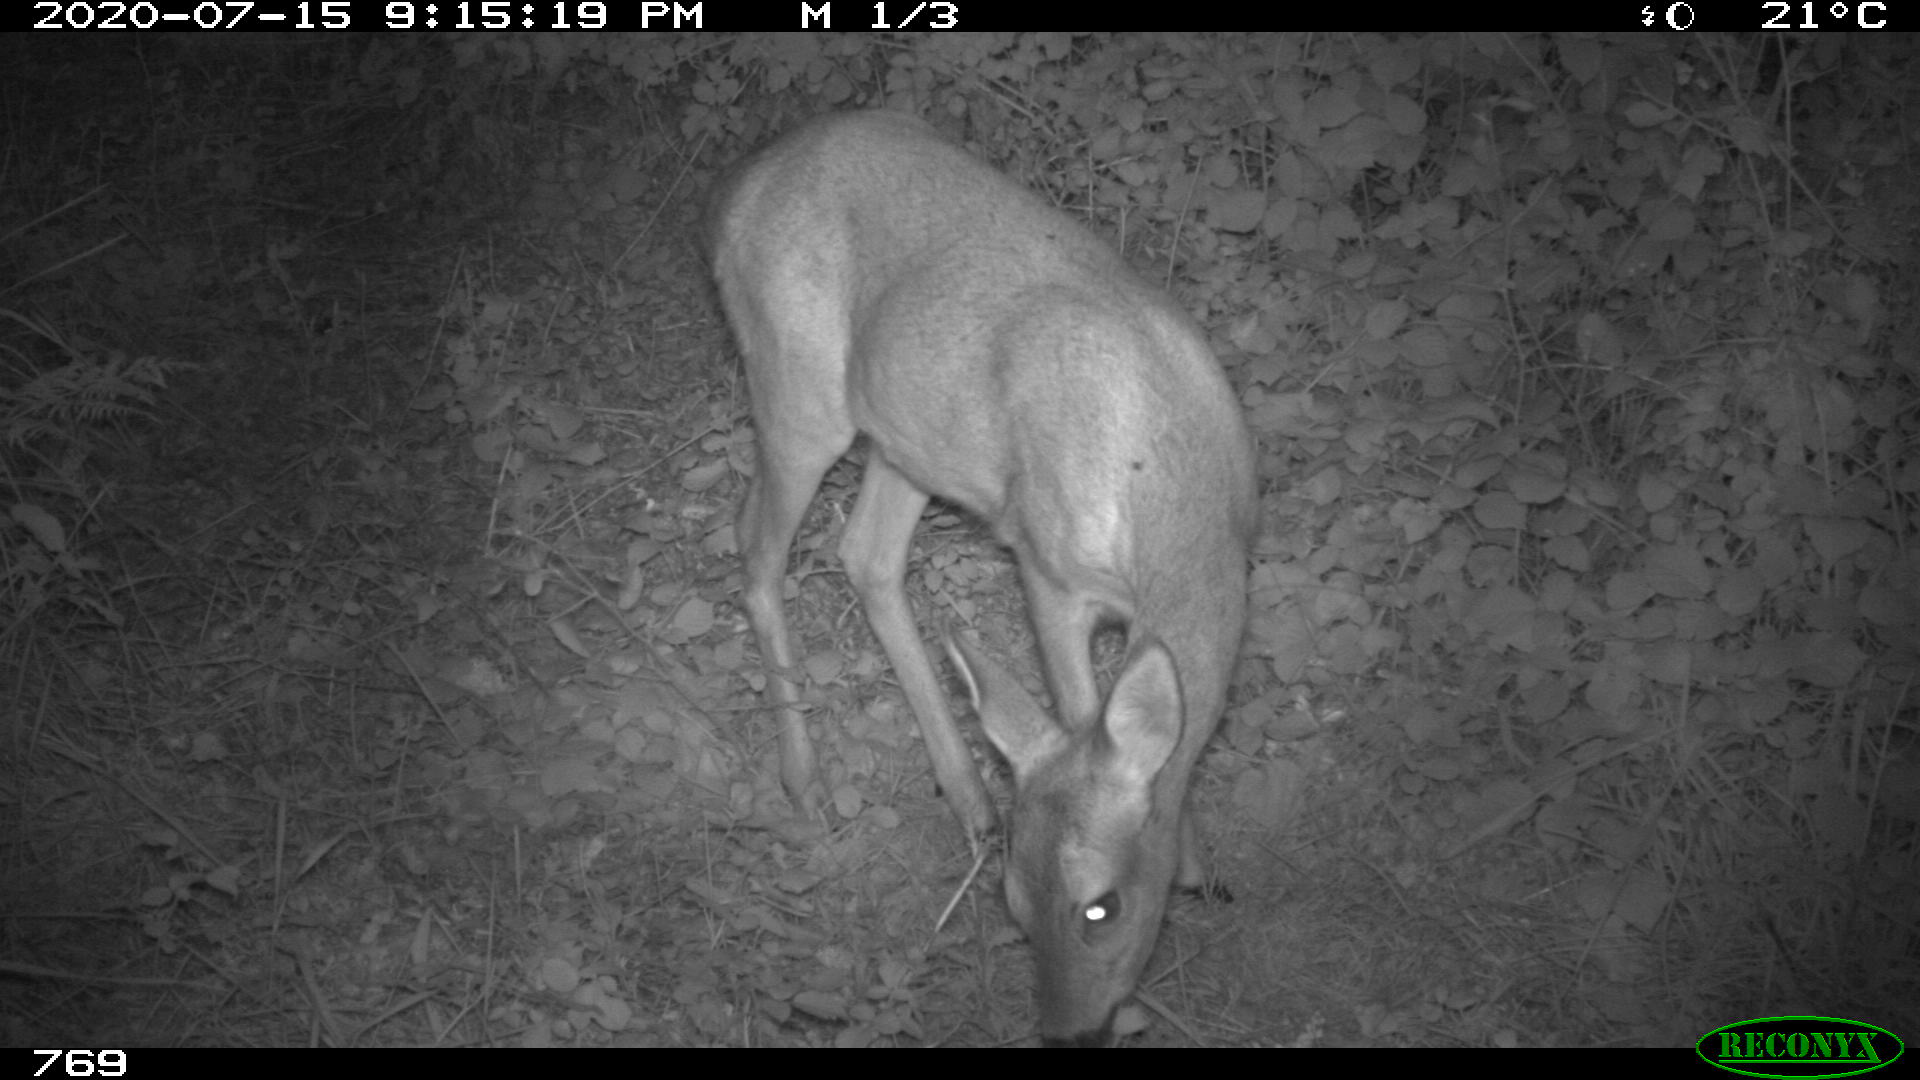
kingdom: Animalia
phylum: Chordata
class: Mammalia
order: Artiodactyla
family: Cervidae
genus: Capreolus
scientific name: Capreolus capreolus
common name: Western roe deer
